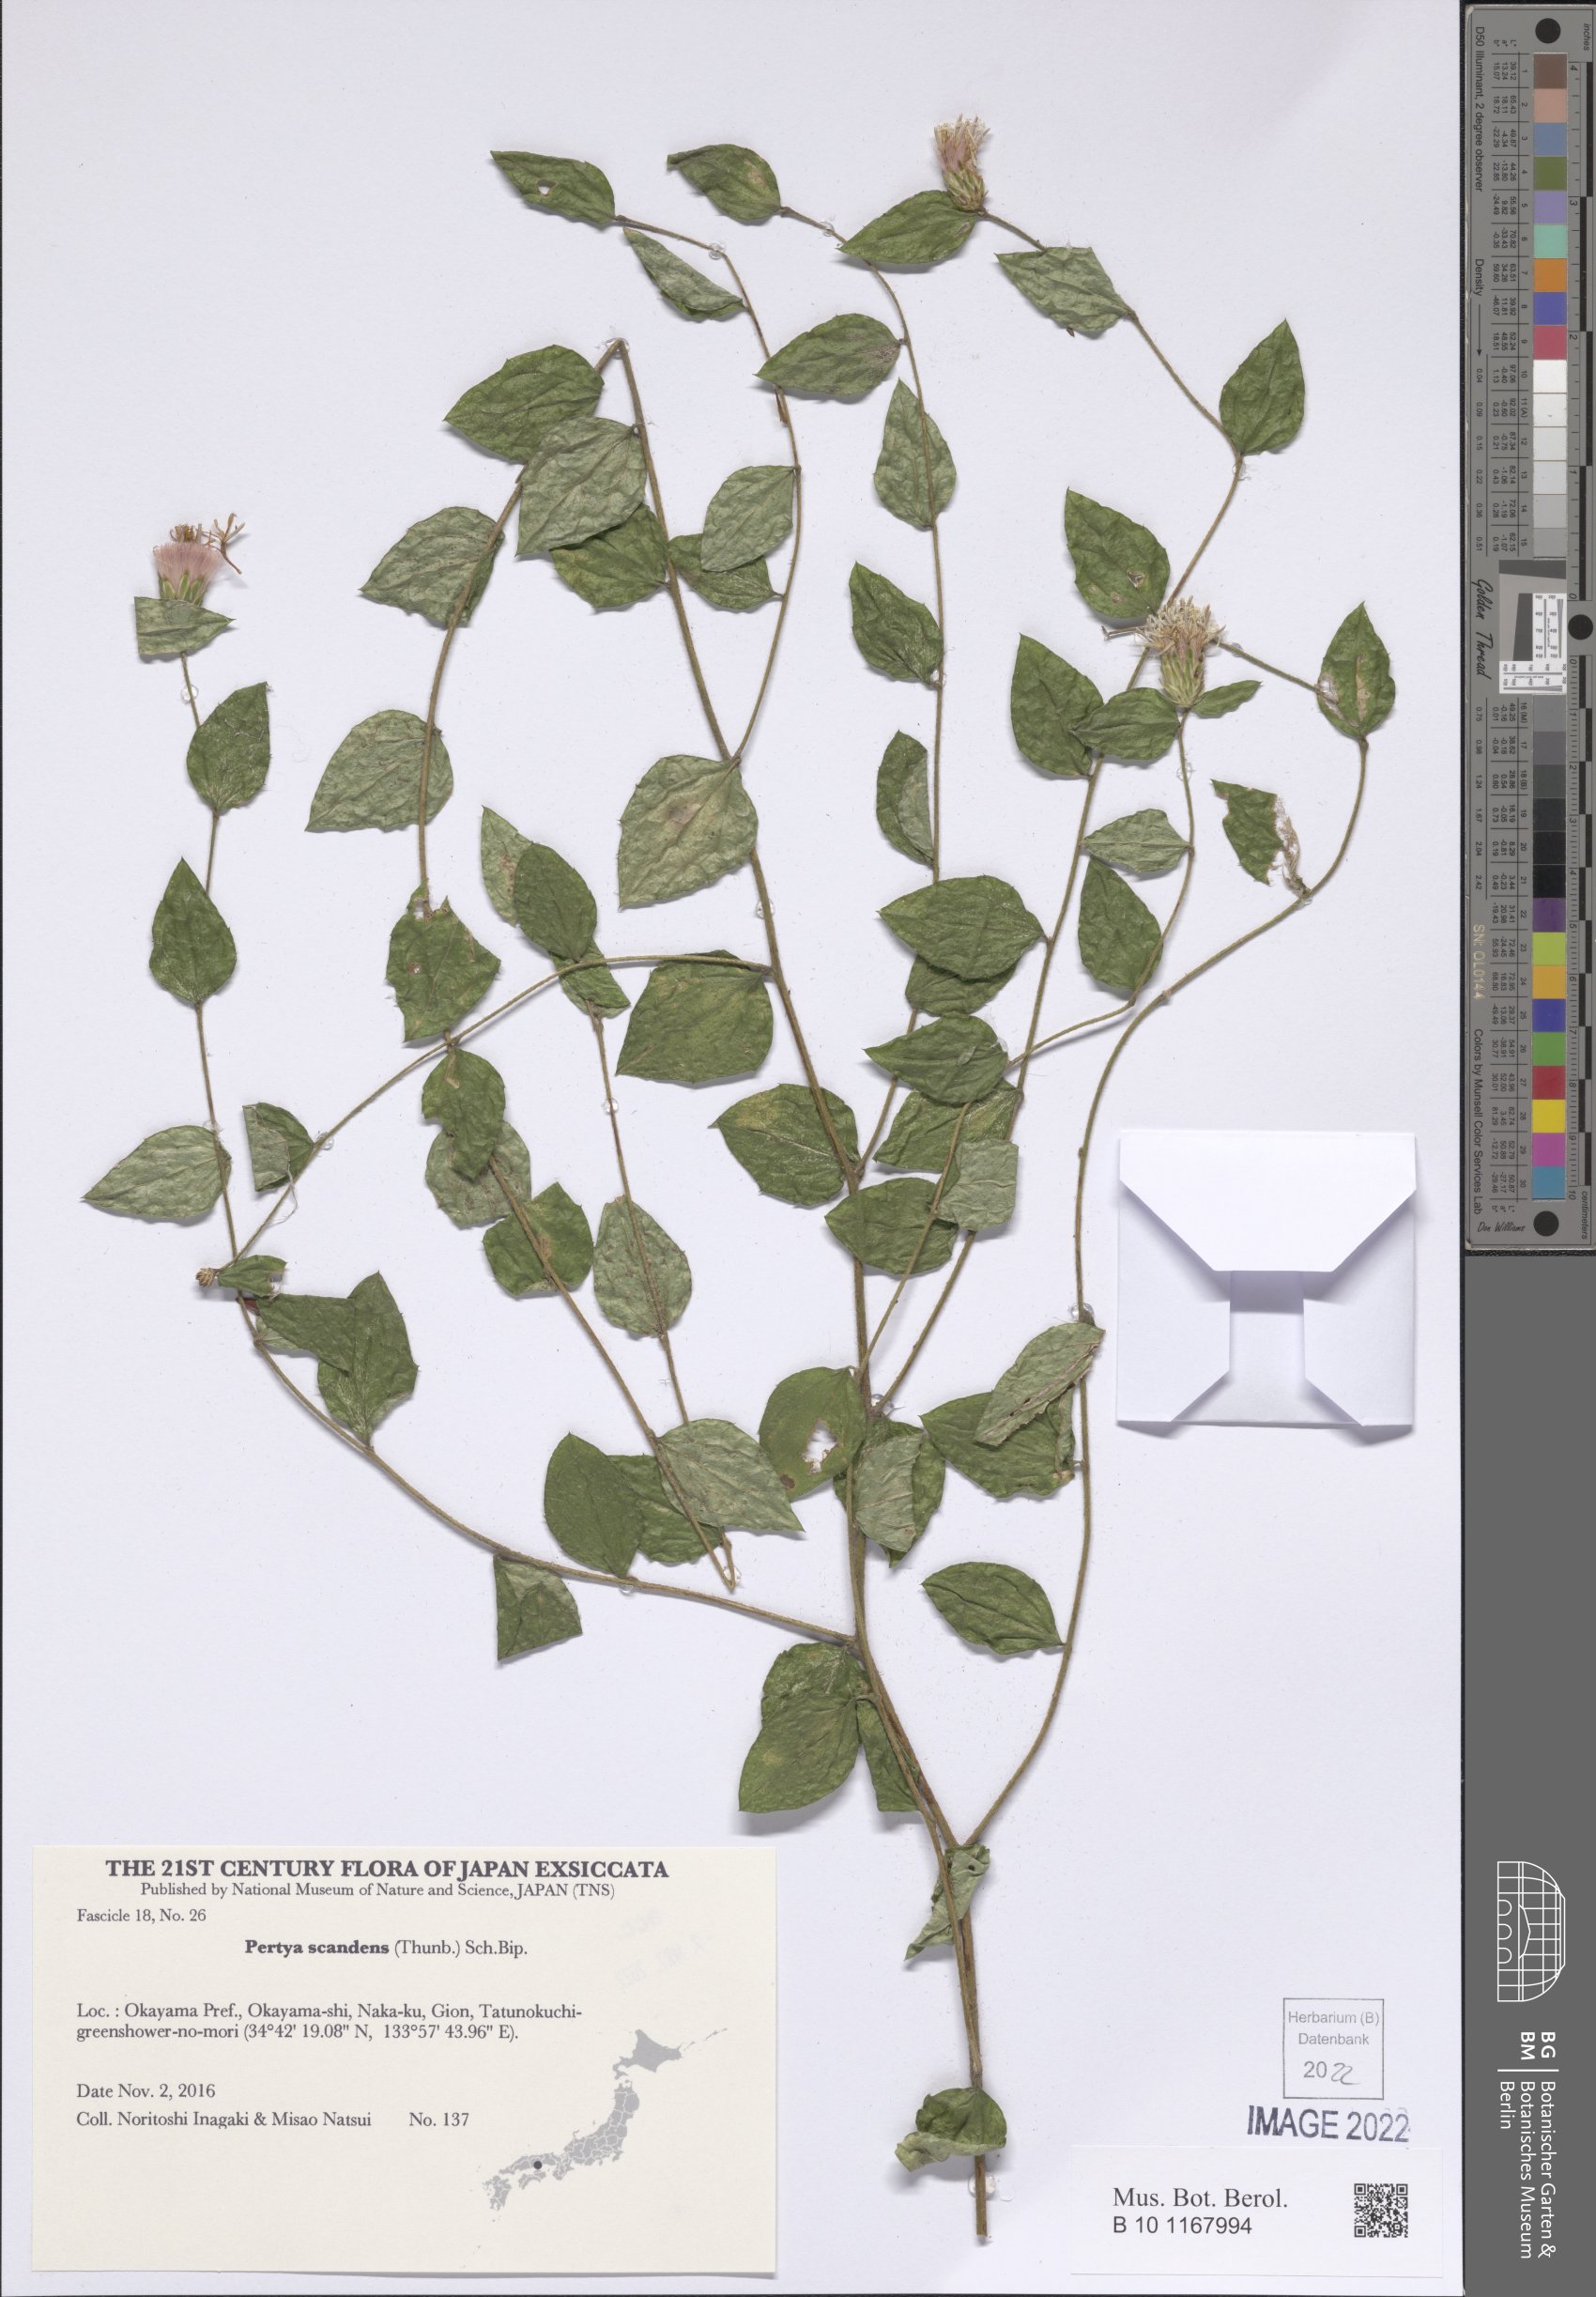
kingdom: Plantae
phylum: Tracheophyta
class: Magnoliopsida
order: Asterales
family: Asteraceae
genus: Pertya
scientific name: Pertya scandens
